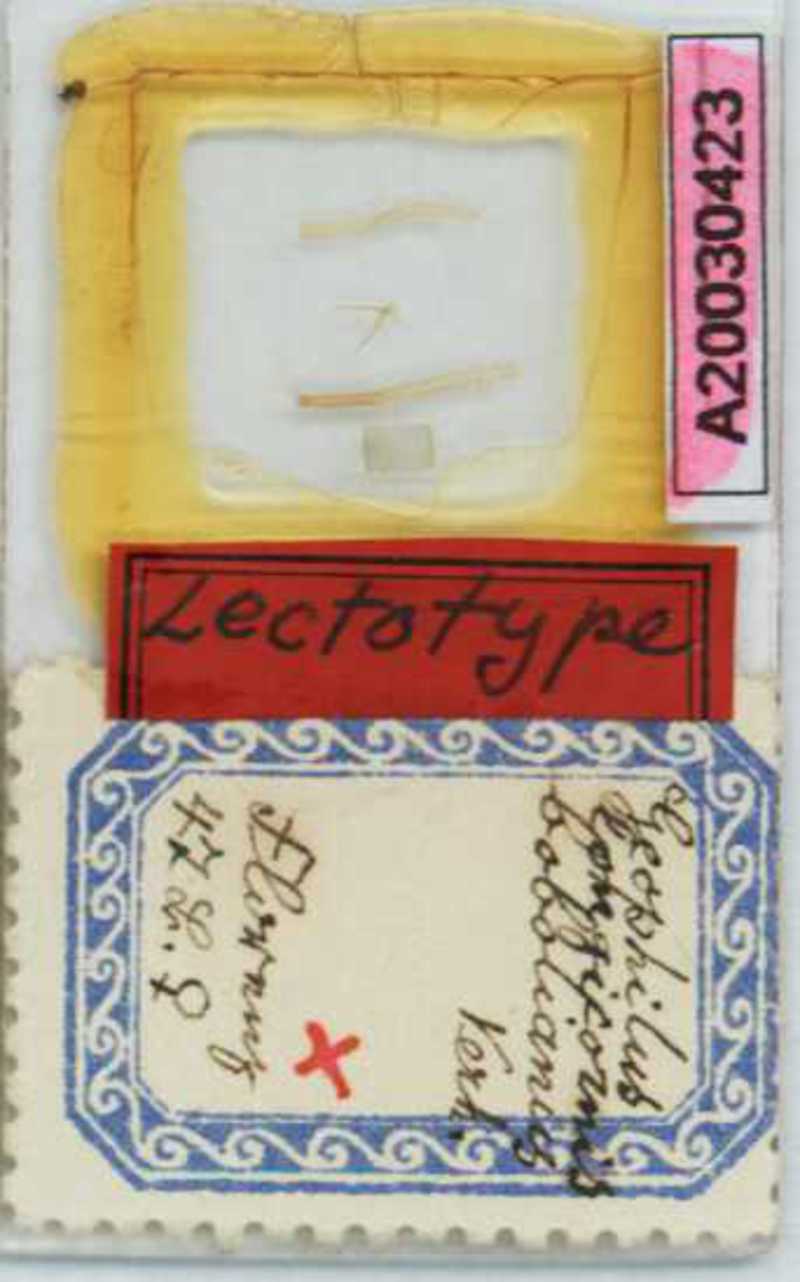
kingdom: Animalia
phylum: Arthropoda
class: Chilopoda
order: Geophilomorpha
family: Geophilidae
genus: Geophilus
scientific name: Geophilus flavus
